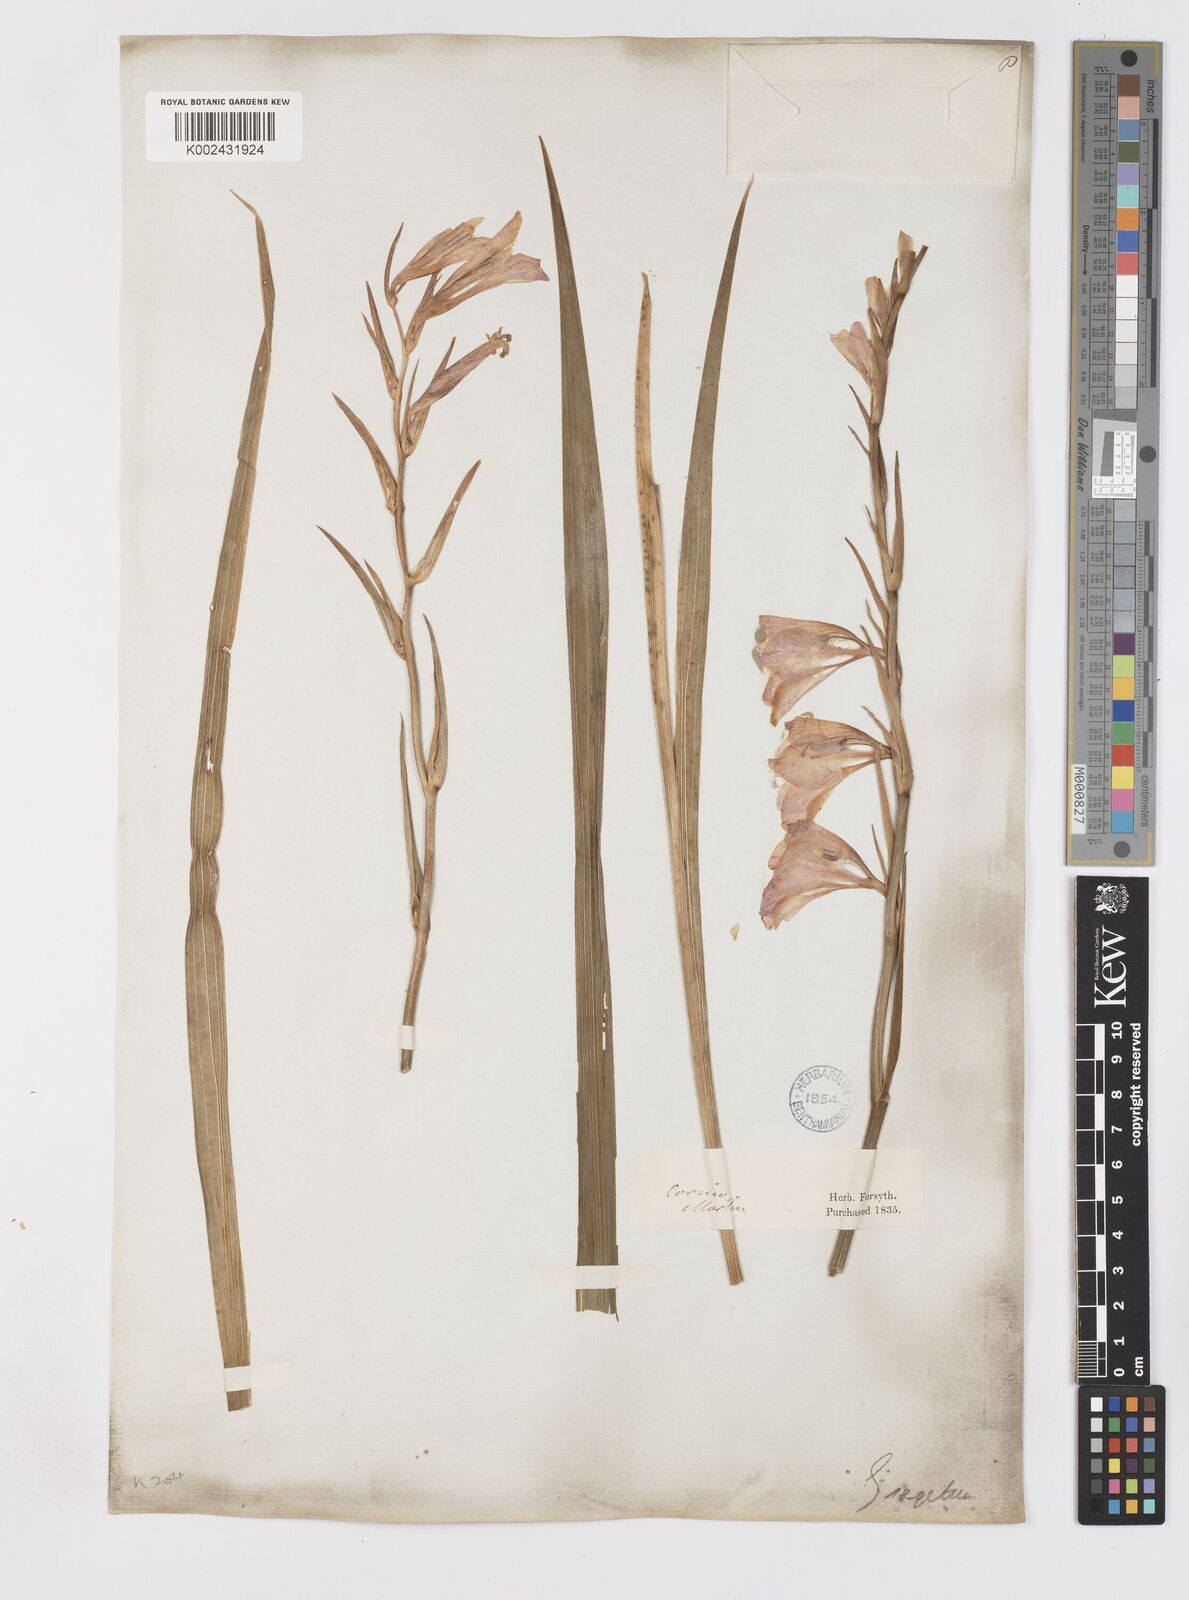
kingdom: Plantae
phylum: Tracheophyta
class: Liliopsida
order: Asparagales
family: Iridaceae
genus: Gladiolus
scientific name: Gladiolus italicus
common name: Field gladiolus
